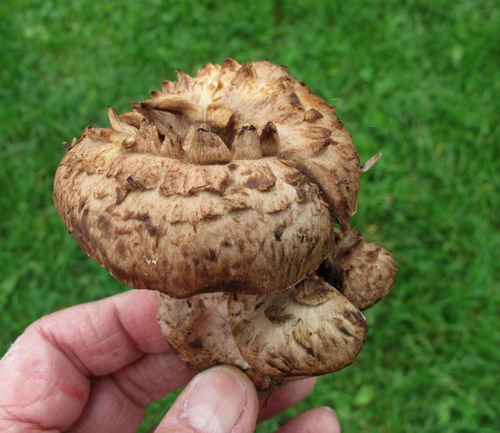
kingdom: Fungi
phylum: Basidiomycota
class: Agaricomycetes
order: Thelephorales
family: Bankeraceae
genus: Sarcodon
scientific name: Sarcodon imbricatus
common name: skællet kødpigsvamp
